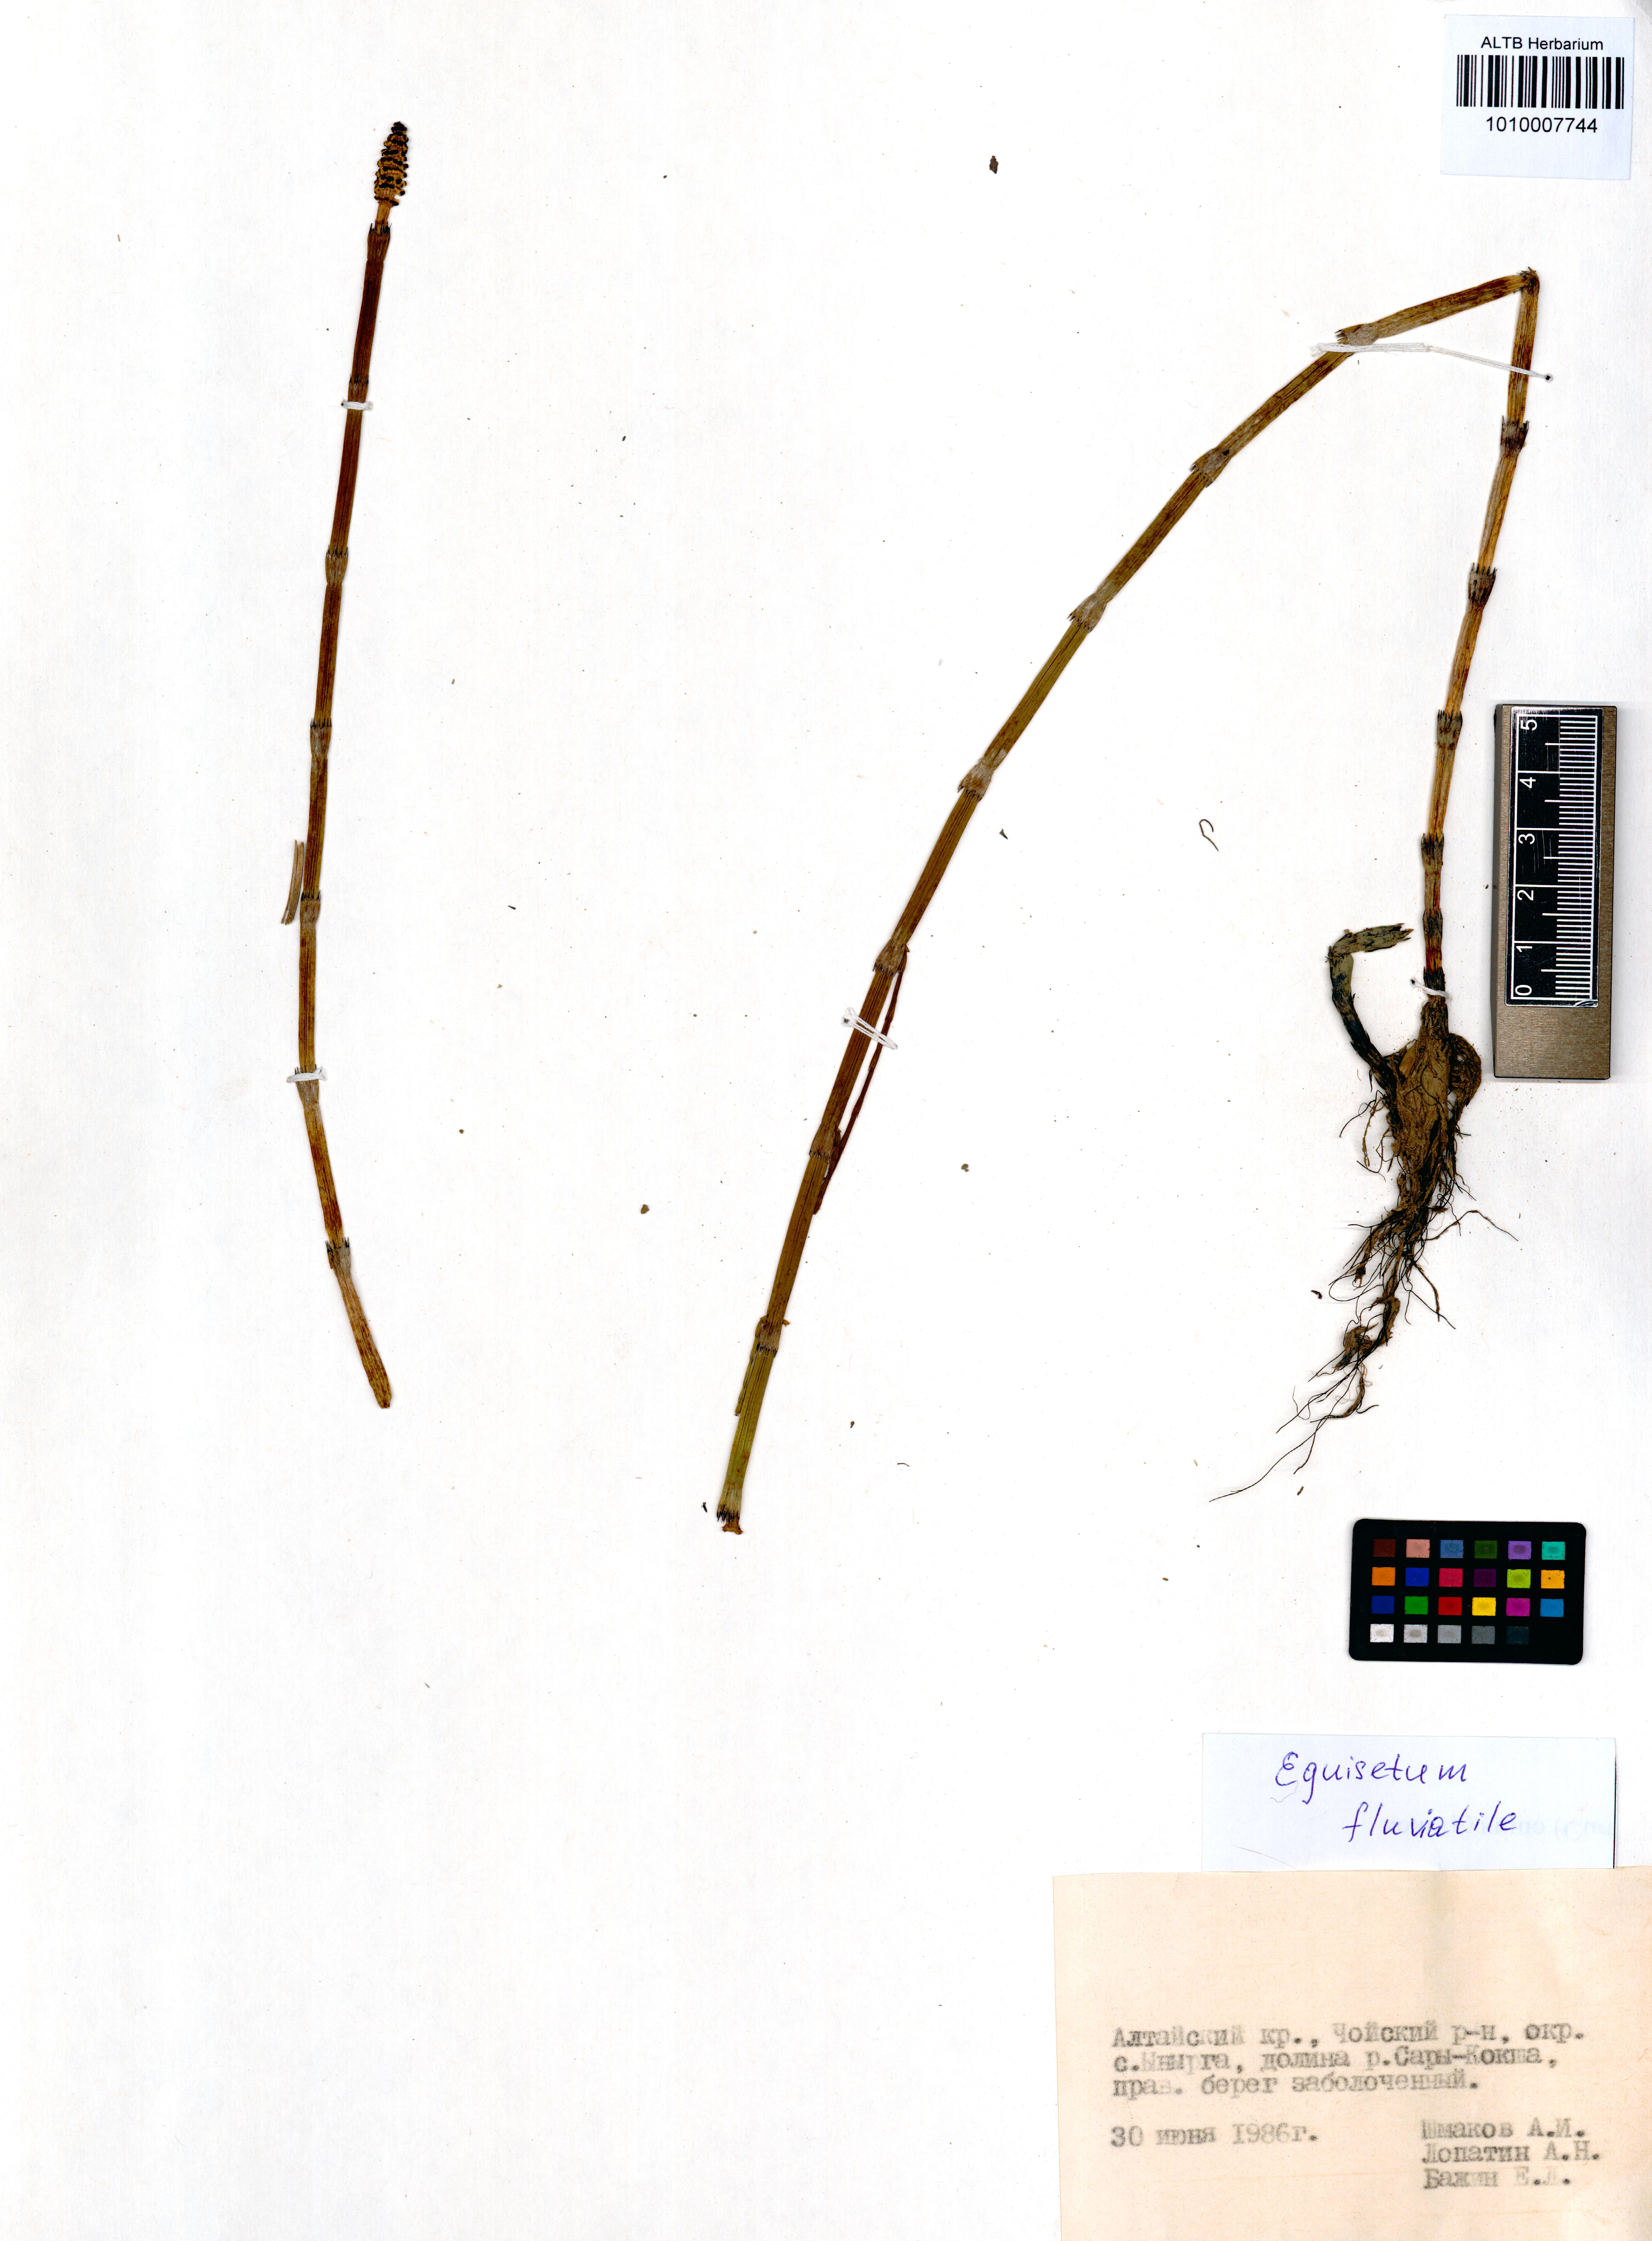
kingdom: Plantae
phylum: Tracheophyta
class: Polypodiopsida
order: Equisetales
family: Equisetaceae
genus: Equisetum
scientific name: Equisetum fluviatile
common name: Water horsetail
